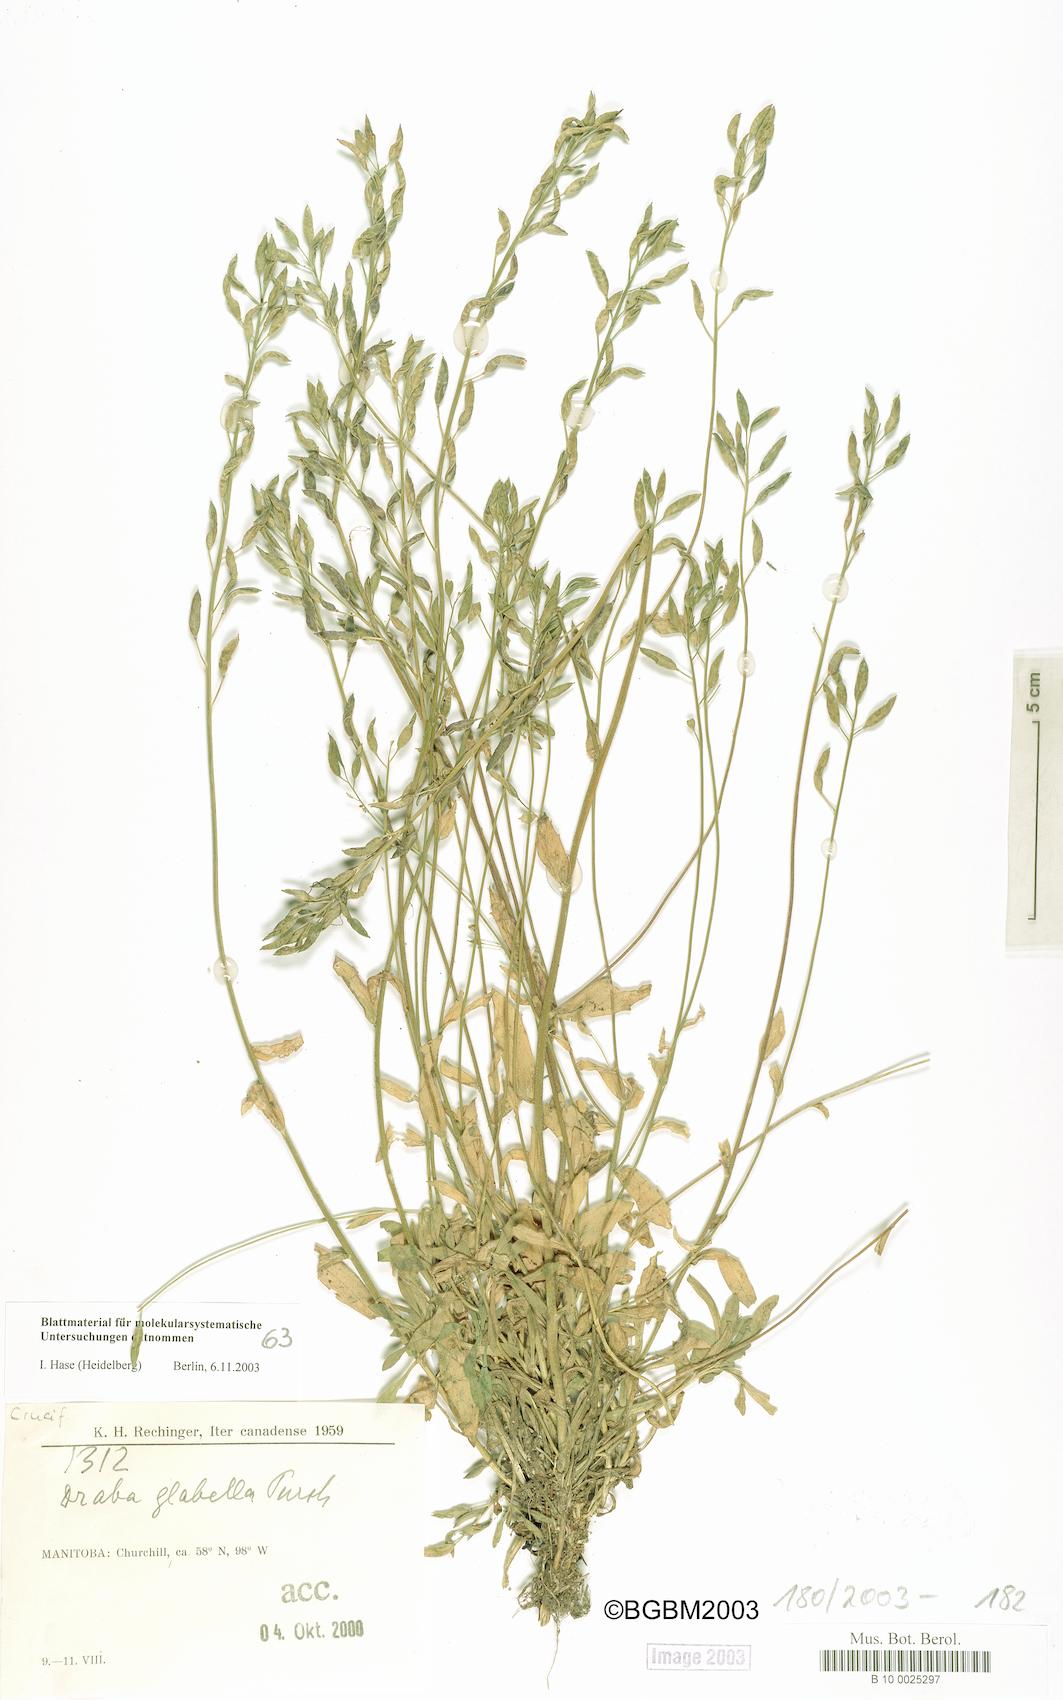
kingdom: Plantae
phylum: Tracheophyta
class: Magnoliopsida
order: Brassicales
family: Brassicaceae
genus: Draba
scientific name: Draba glabella
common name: Glaucous draba
